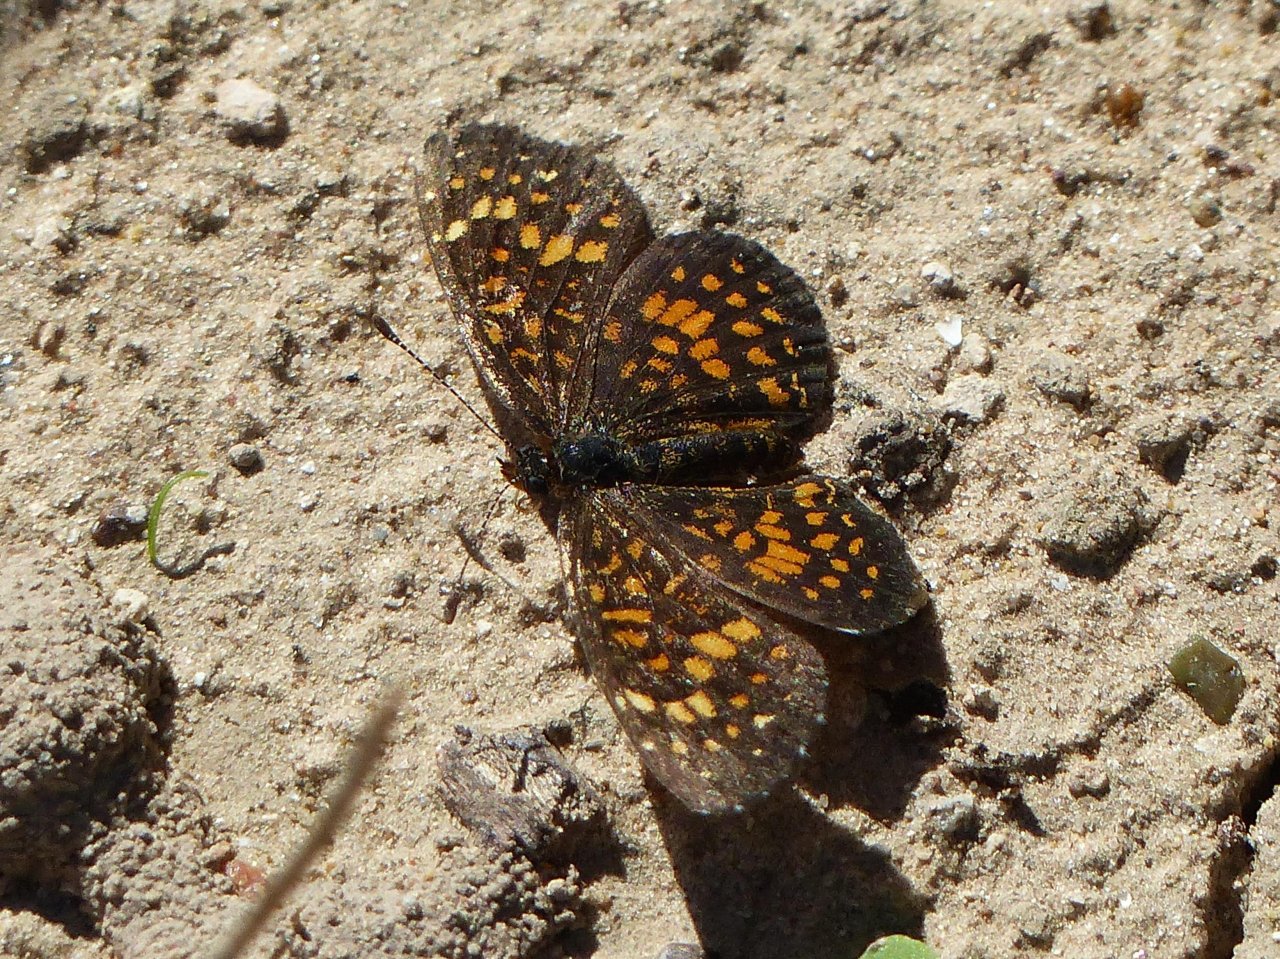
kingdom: Animalia
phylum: Arthropoda
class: Insecta
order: Lepidoptera
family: Nymphalidae
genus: Texola
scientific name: Texola elada
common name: Elada Checkerspot
